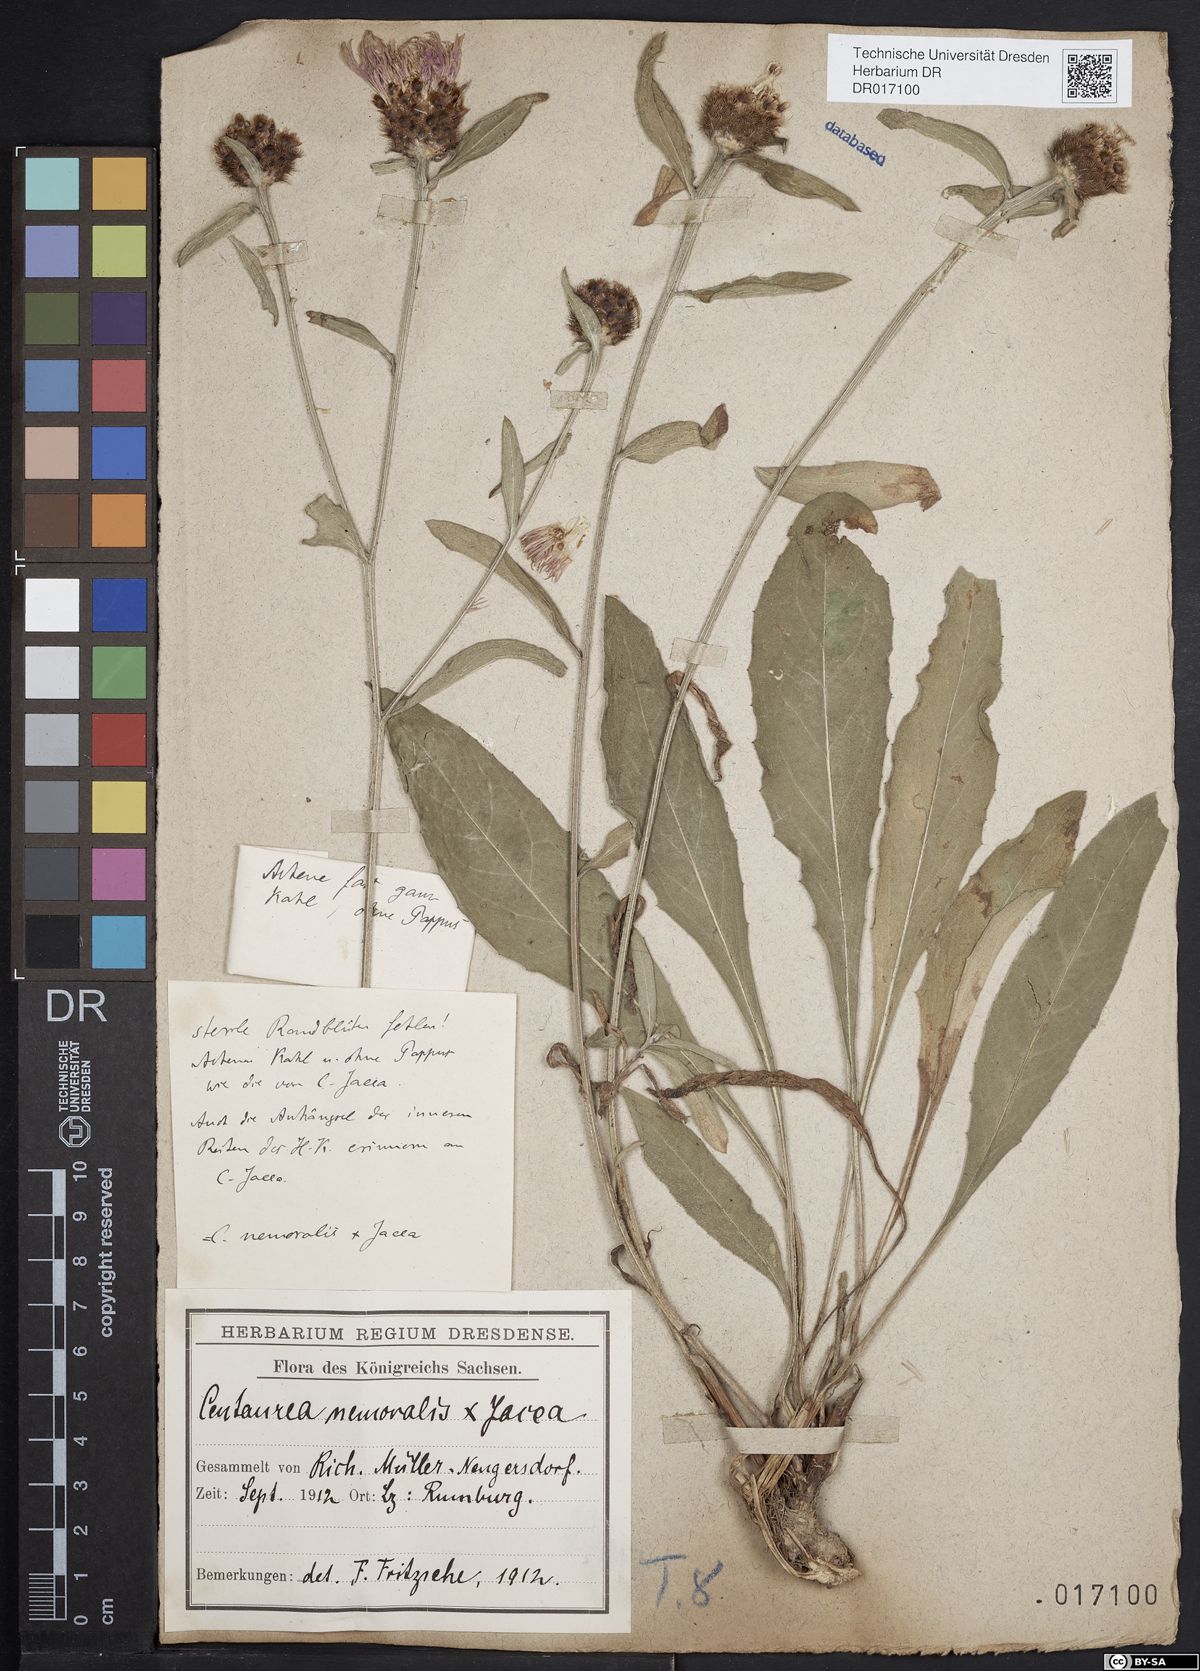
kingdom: Plantae
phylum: Tracheophyta
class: Magnoliopsida
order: Asterales
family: Asteraceae
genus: Centaurea
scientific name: Centaurea gerstlaueri
